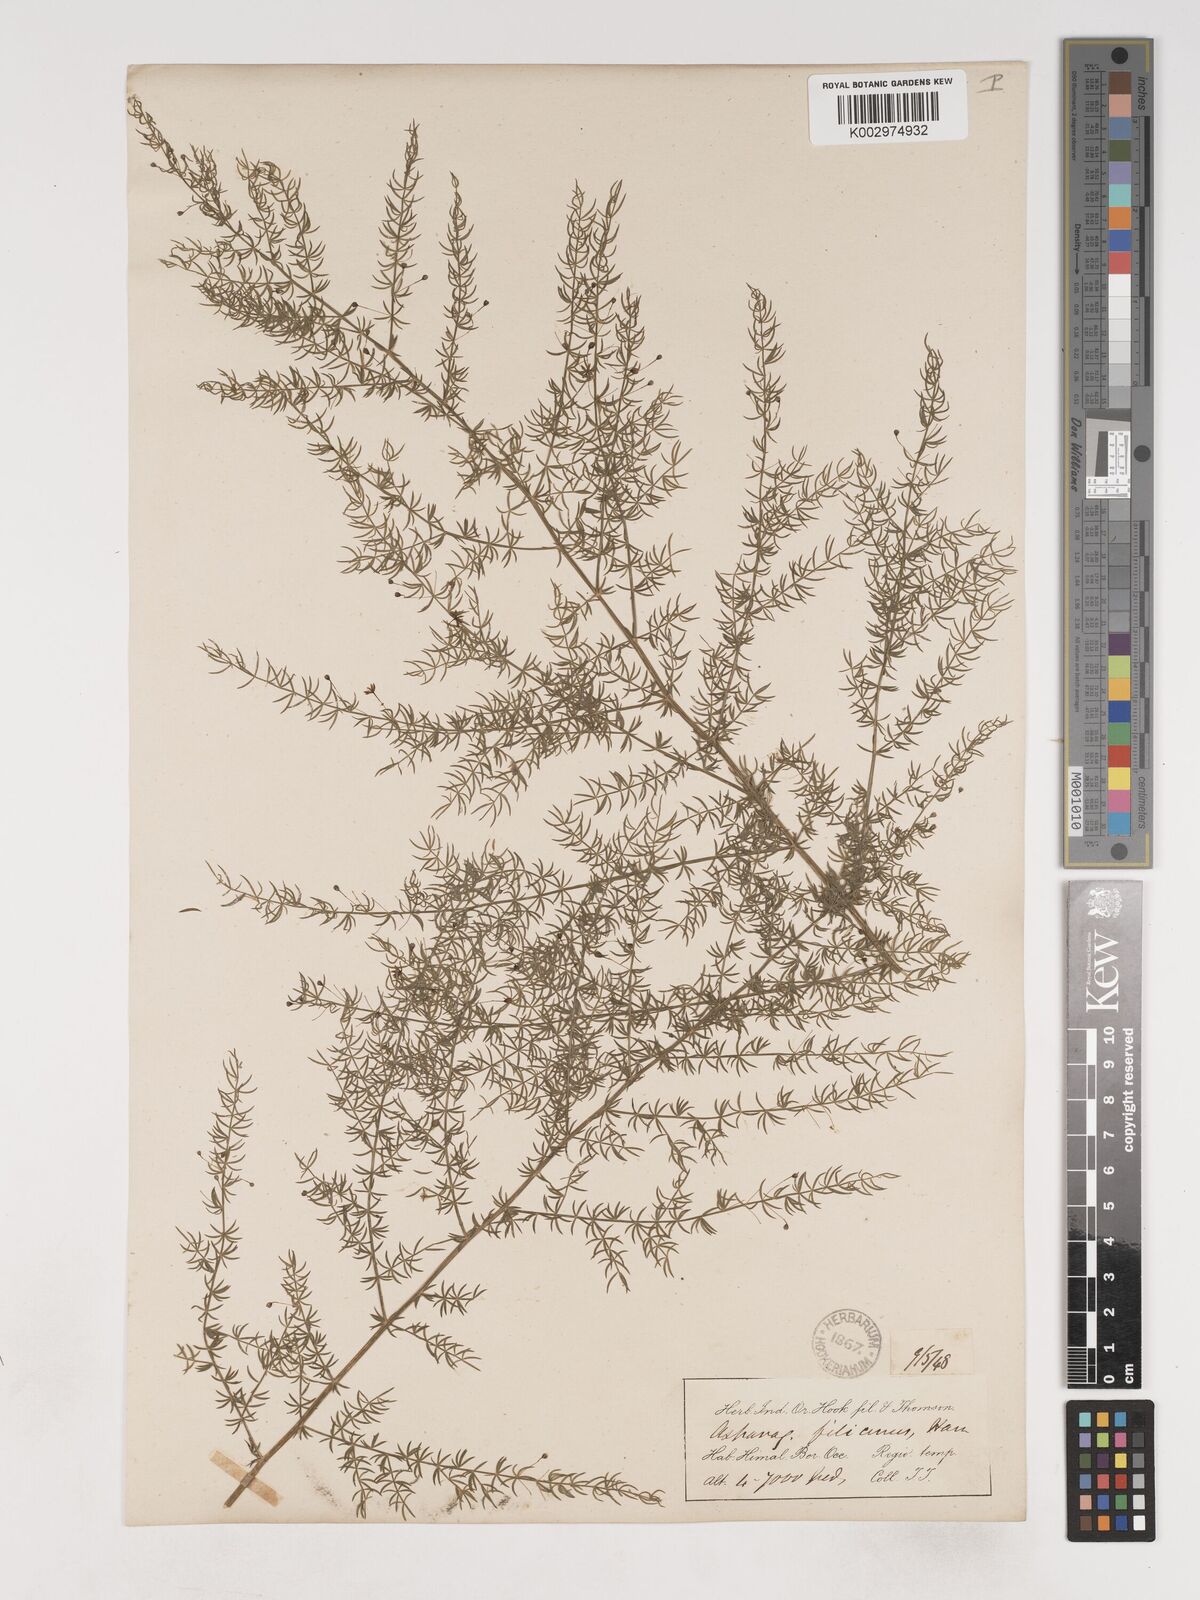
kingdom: Plantae
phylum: Tracheophyta
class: Liliopsida
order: Asparagales
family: Asparagaceae
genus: Asparagus
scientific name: Asparagus filicinus
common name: Fern asparagus
